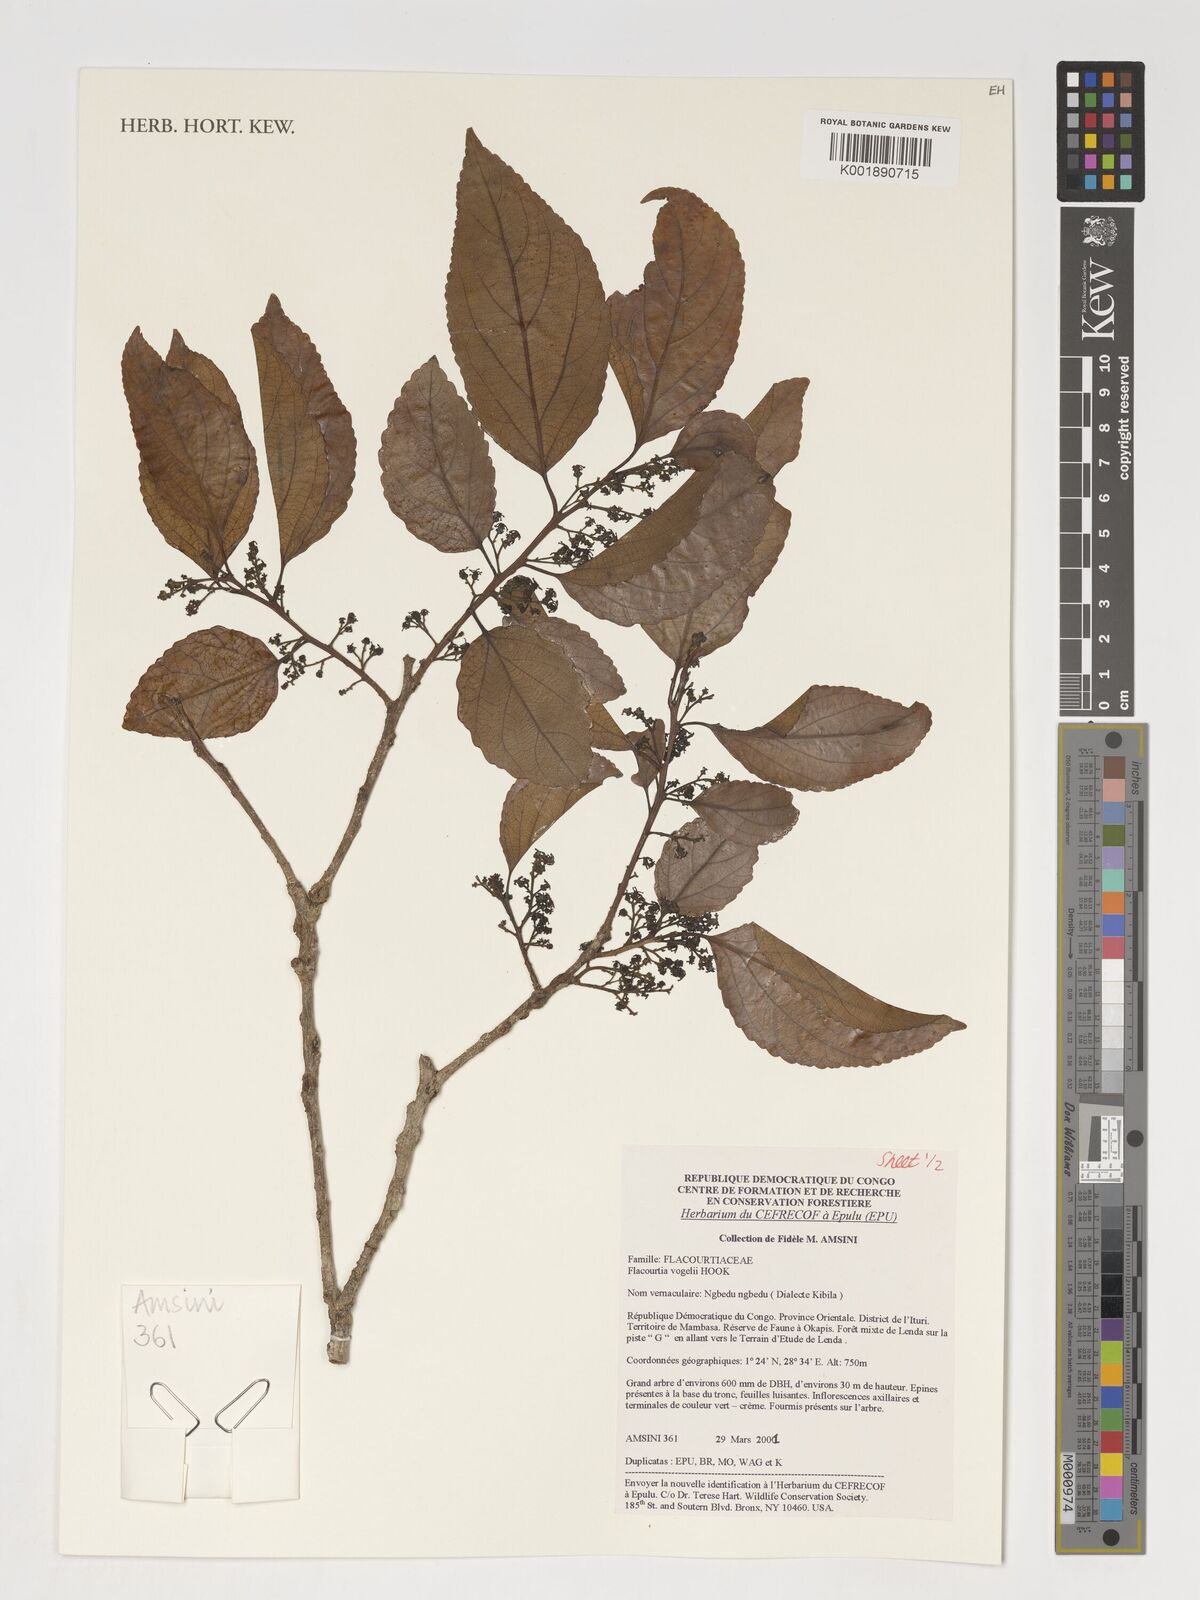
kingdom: Plantae
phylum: Tracheophyta
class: Magnoliopsida
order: Malpighiales
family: Salicaceae
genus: Flacourtia
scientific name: Flacourtia vogelii
